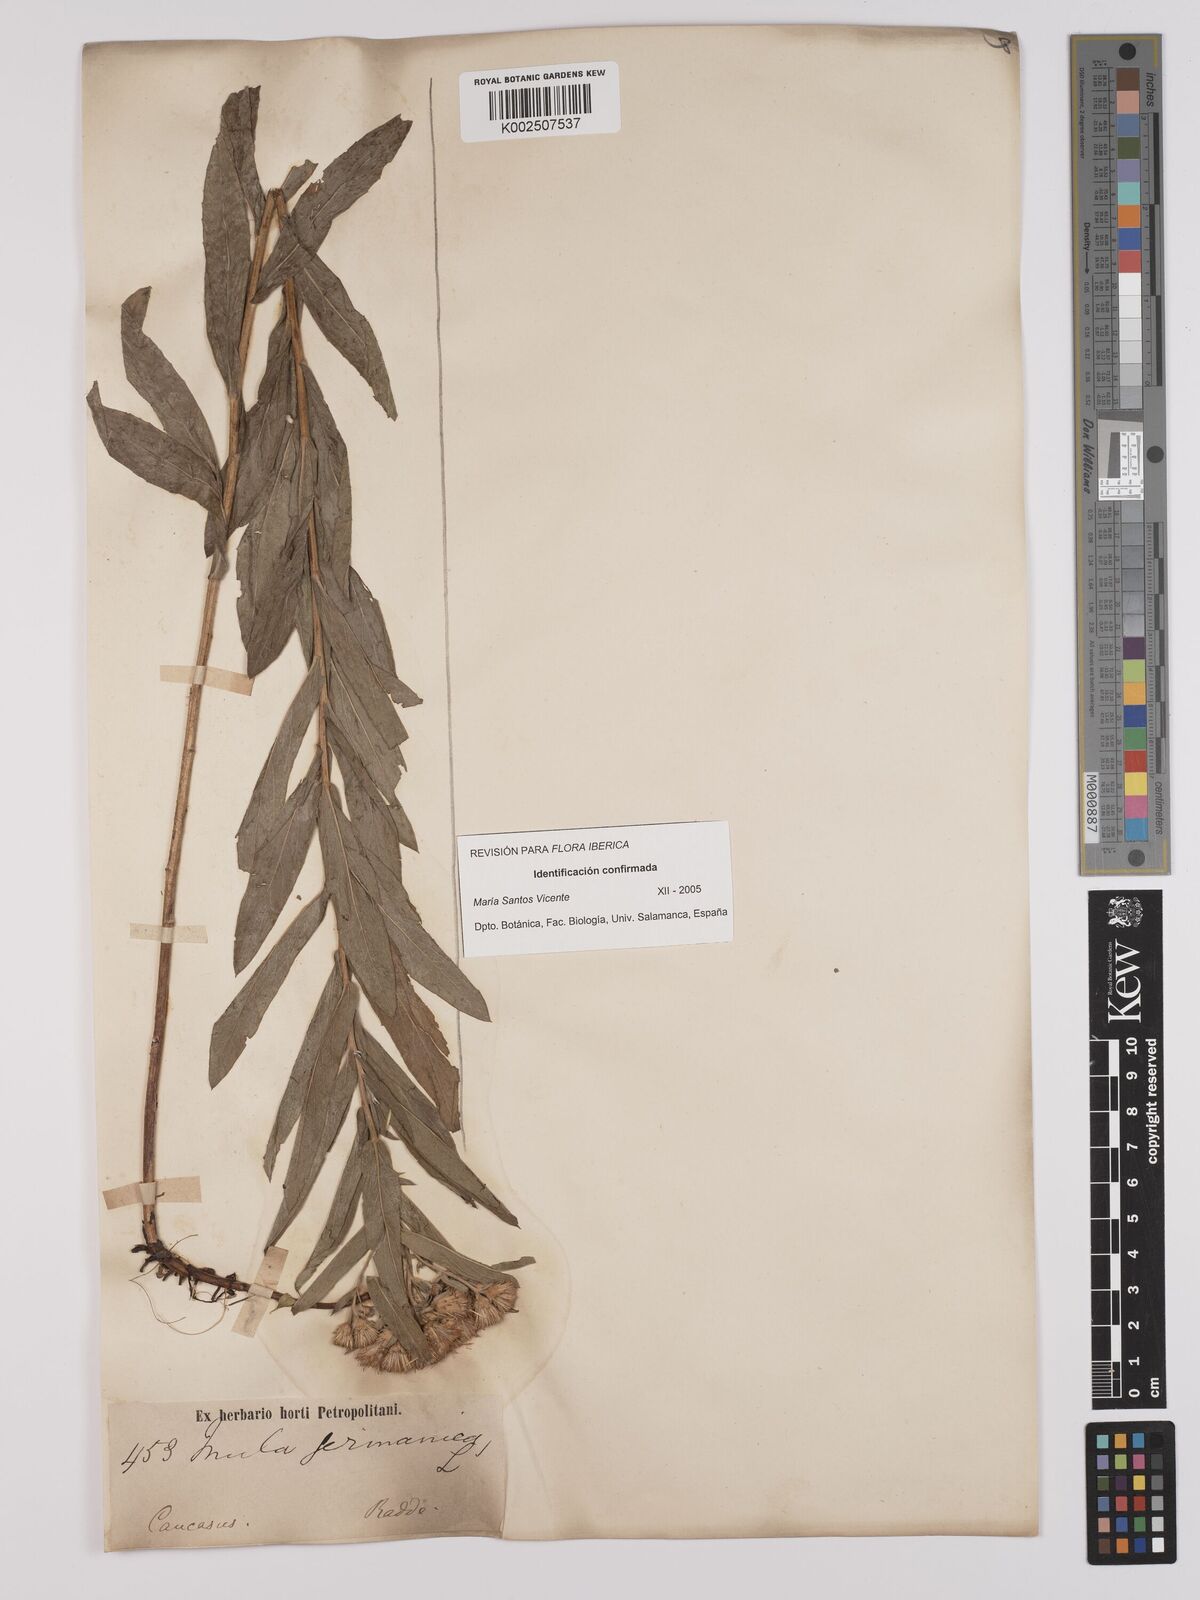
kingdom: Plantae
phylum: Tracheophyta
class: Magnoliopsida
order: Asterales
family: Asteraceae
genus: Pentanema
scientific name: Pentanema germanicum
